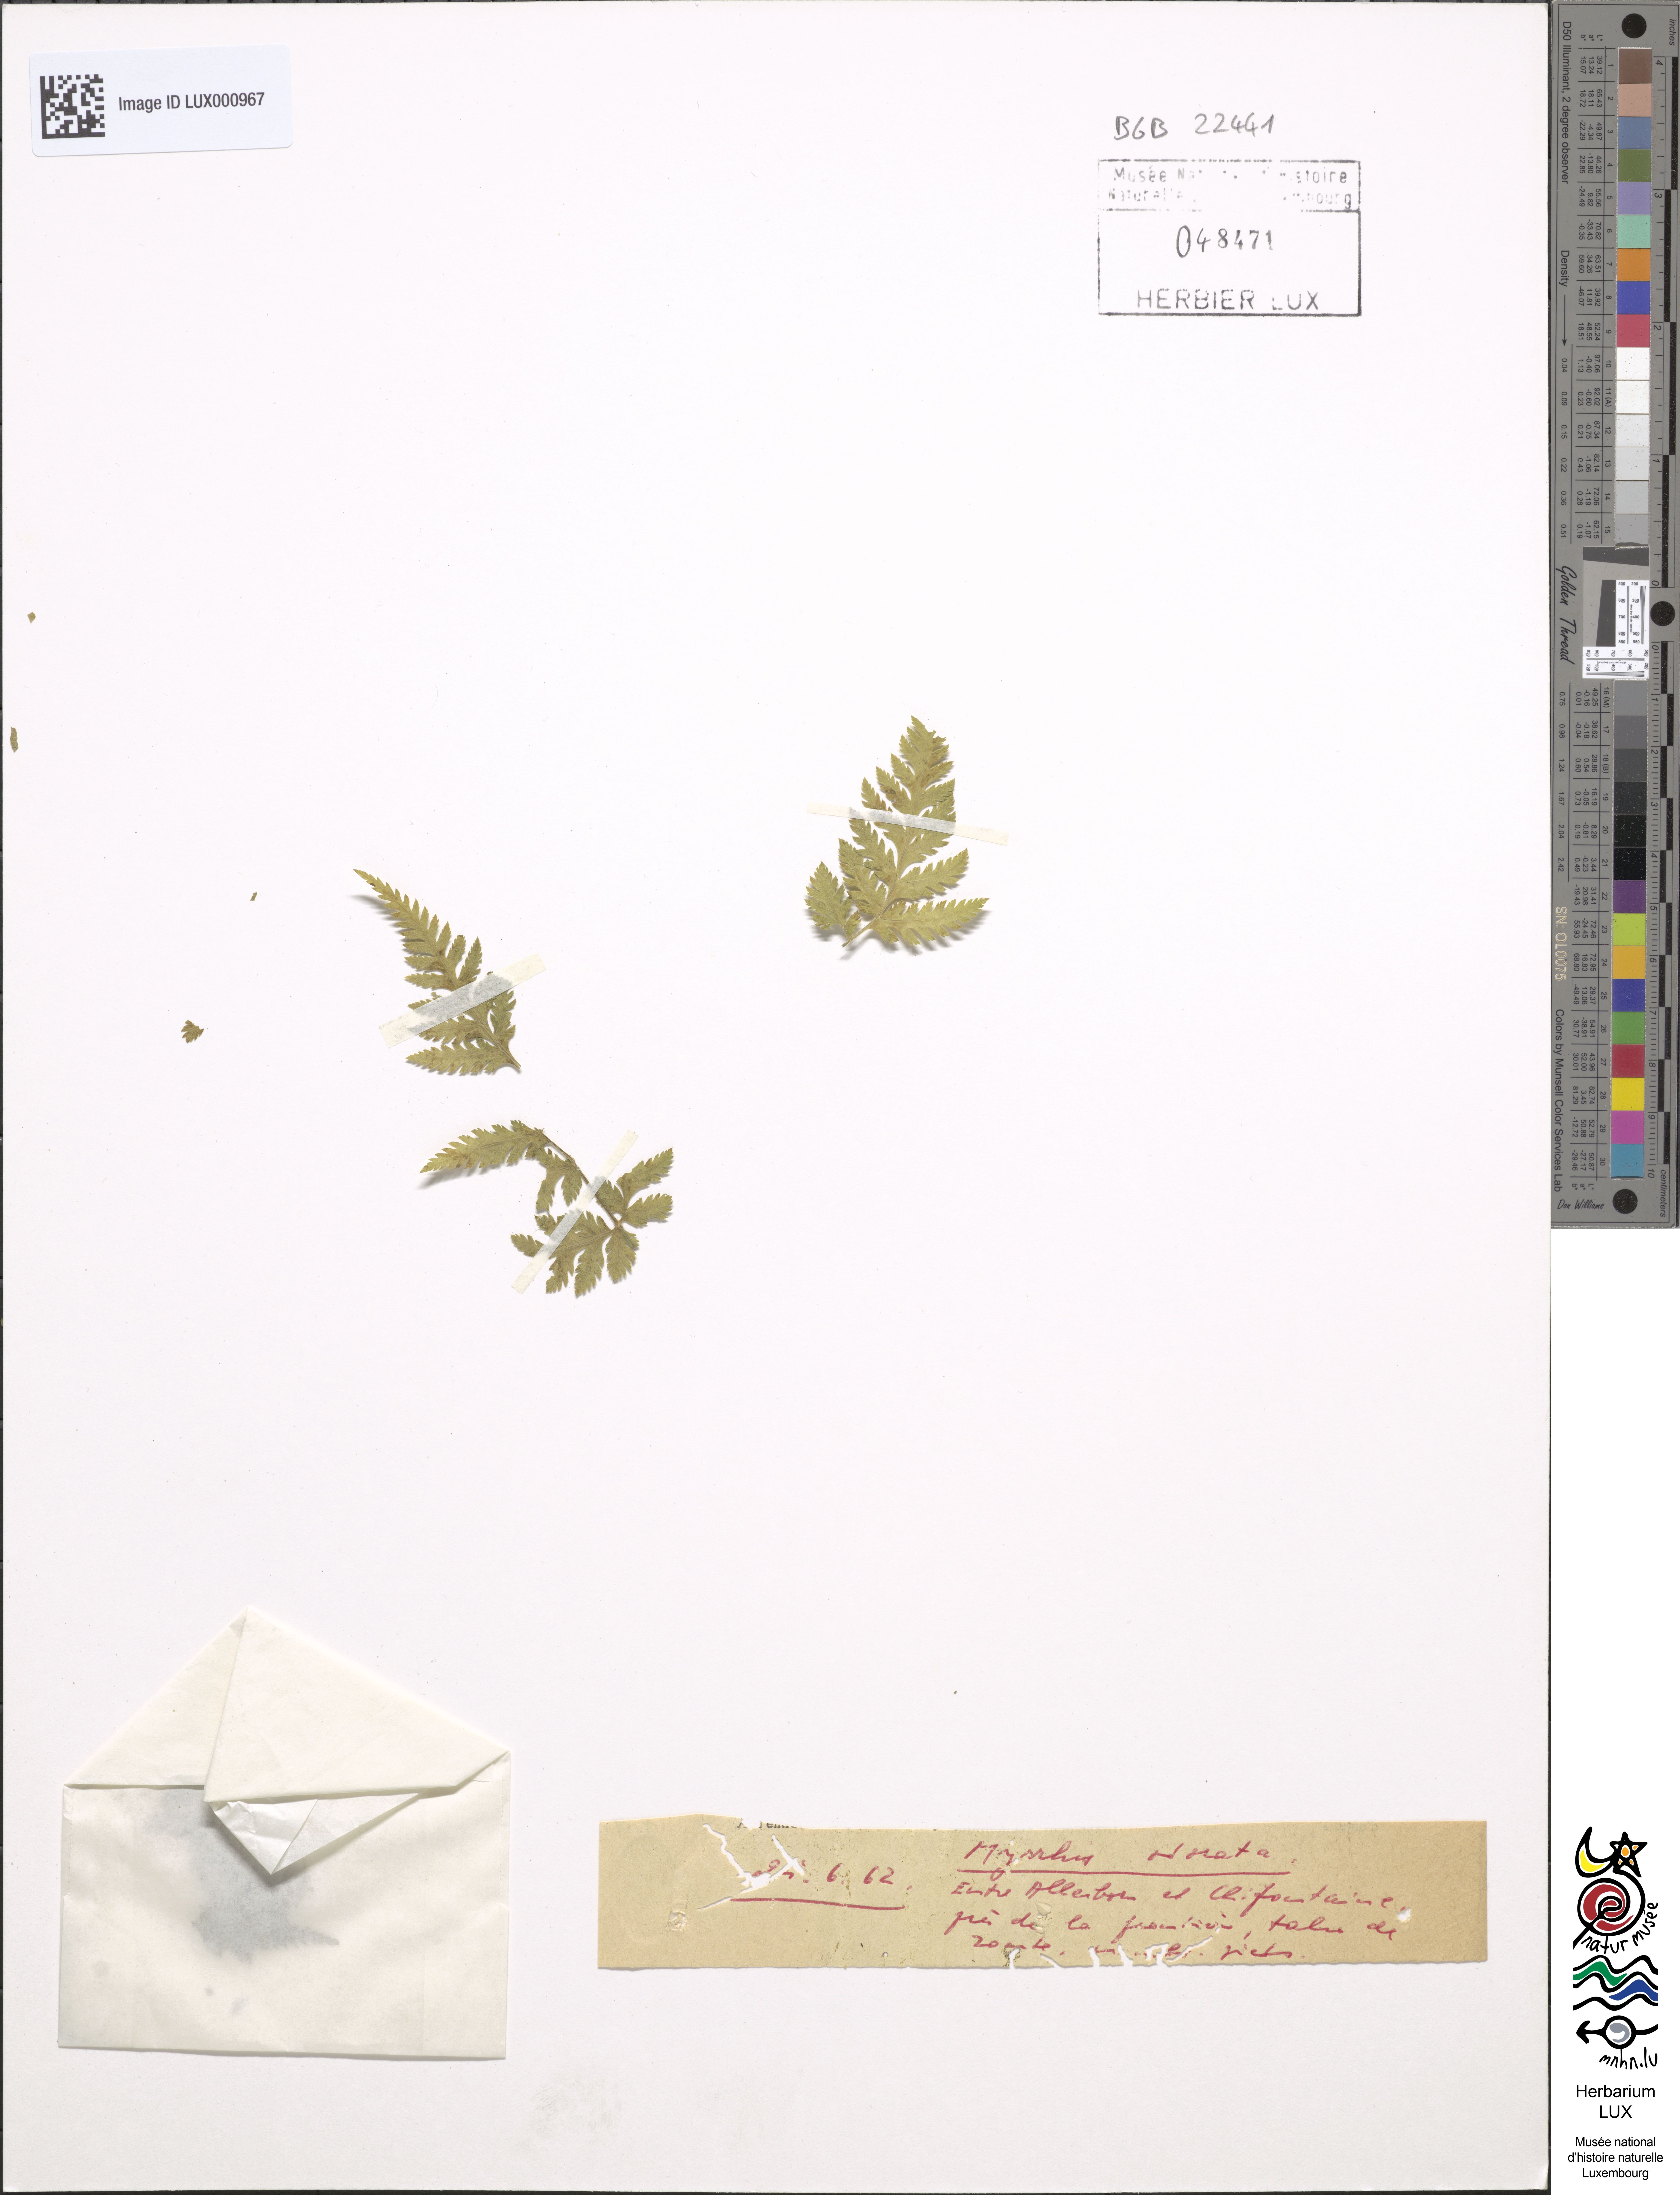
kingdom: Plantae
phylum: Tracheophyta
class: Magnoliopsida
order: Apiales
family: Apiaceae
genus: Myrrhis
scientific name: Myrrhis odorata
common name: Sweet cicely
